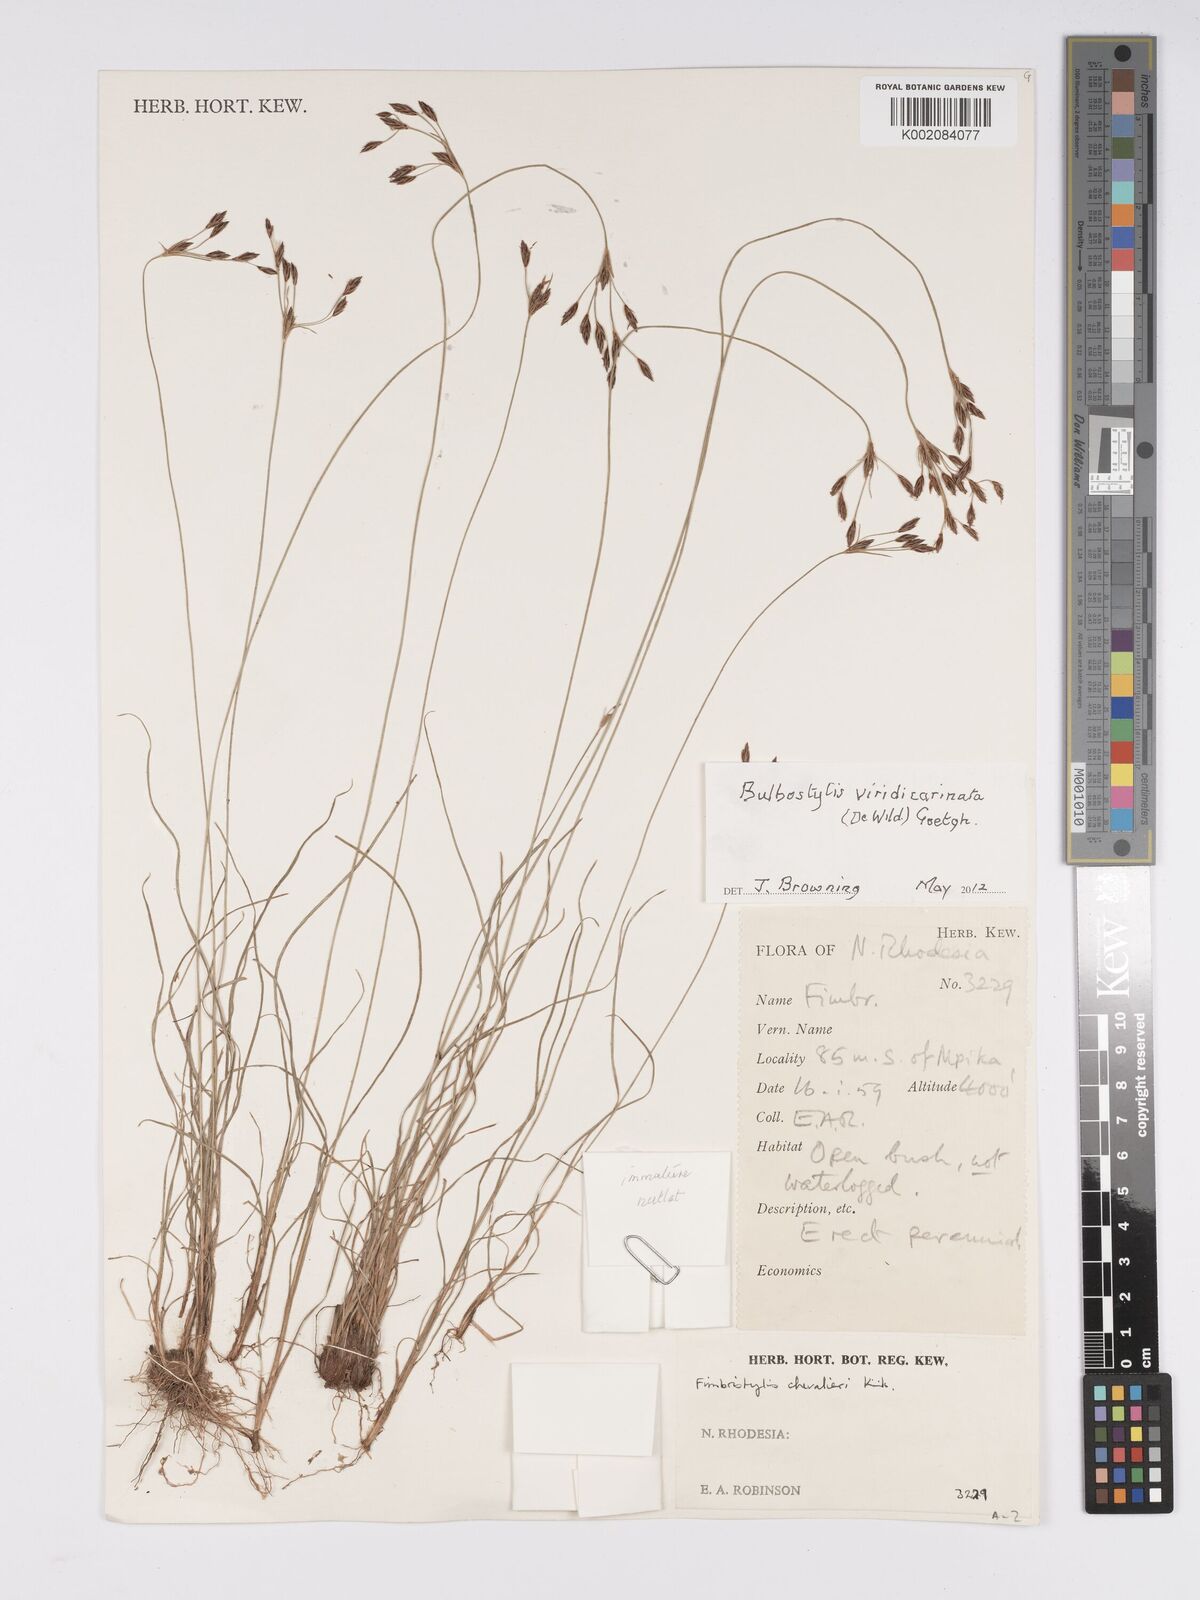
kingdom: Plantae
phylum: Tracheophyta
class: Liliopsida
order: Poales
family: Cyperaceae
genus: Bulbostylis
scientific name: Bulbostylis viridecarinata
